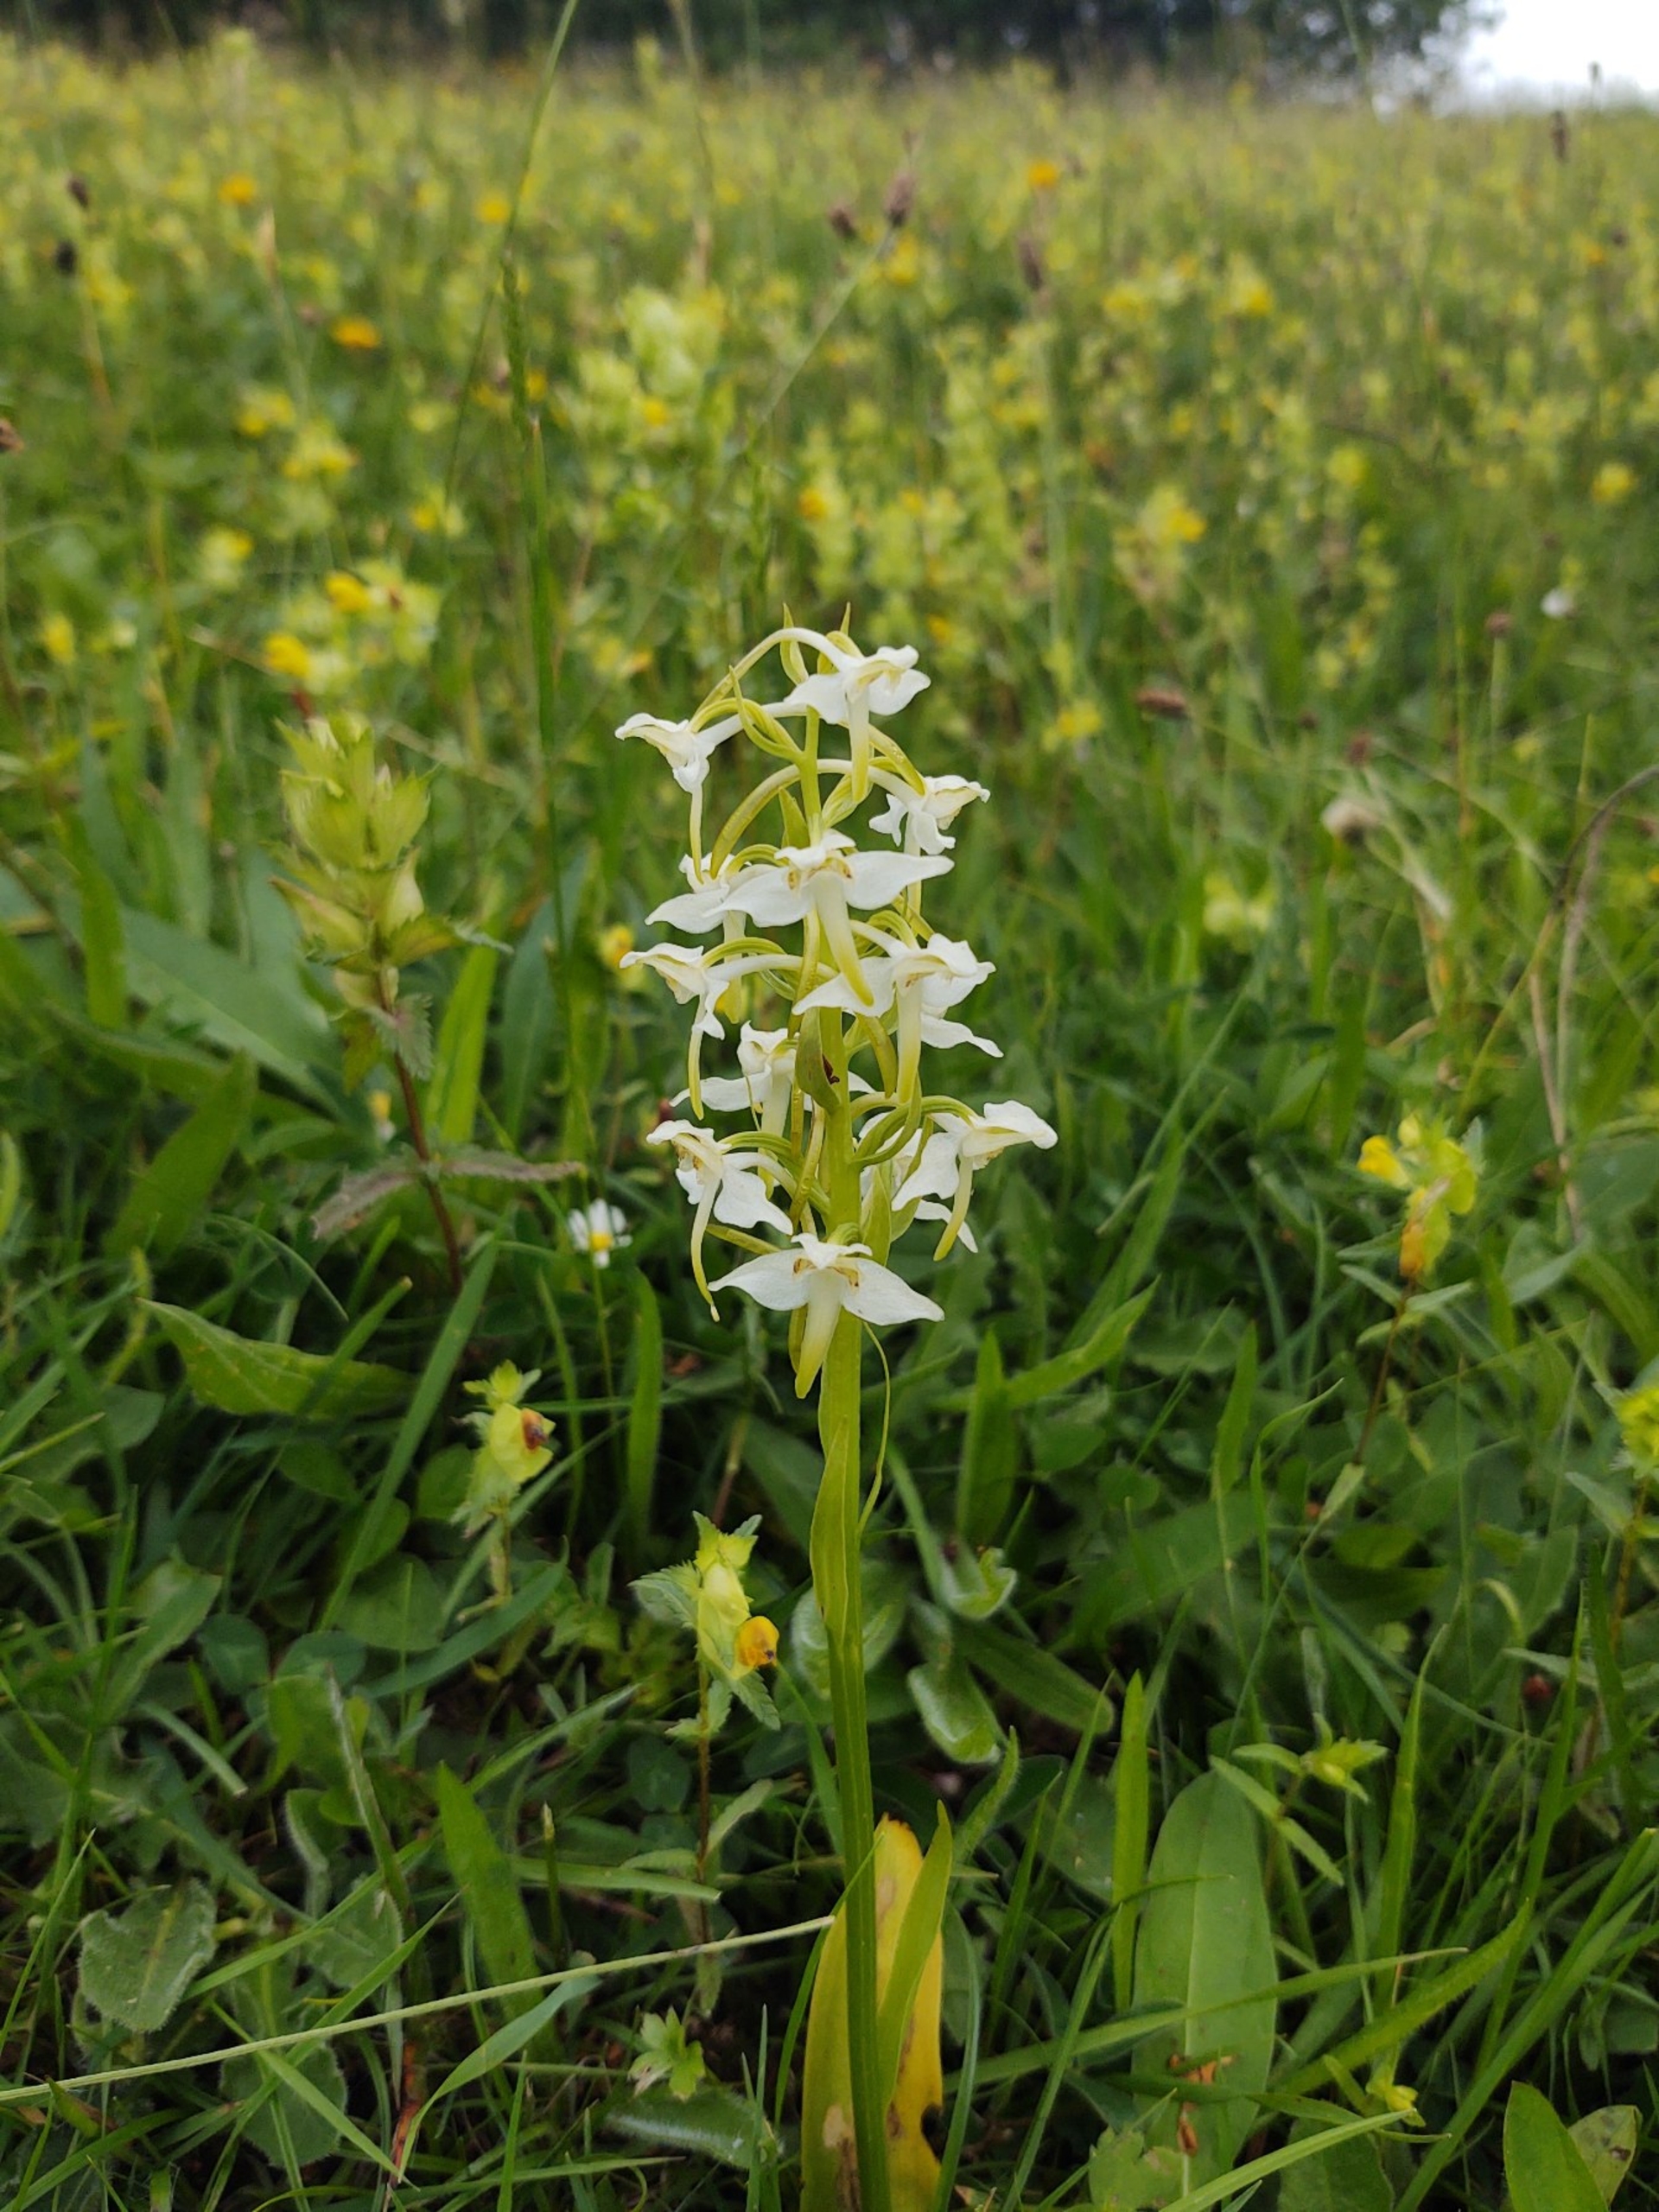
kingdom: Plantae
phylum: Tracheophyta
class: Liliopsida
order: Asparagales
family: Orchidaceae
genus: Platanthera
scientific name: Platanthera chlorantha
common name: Skov-gøgelilje
